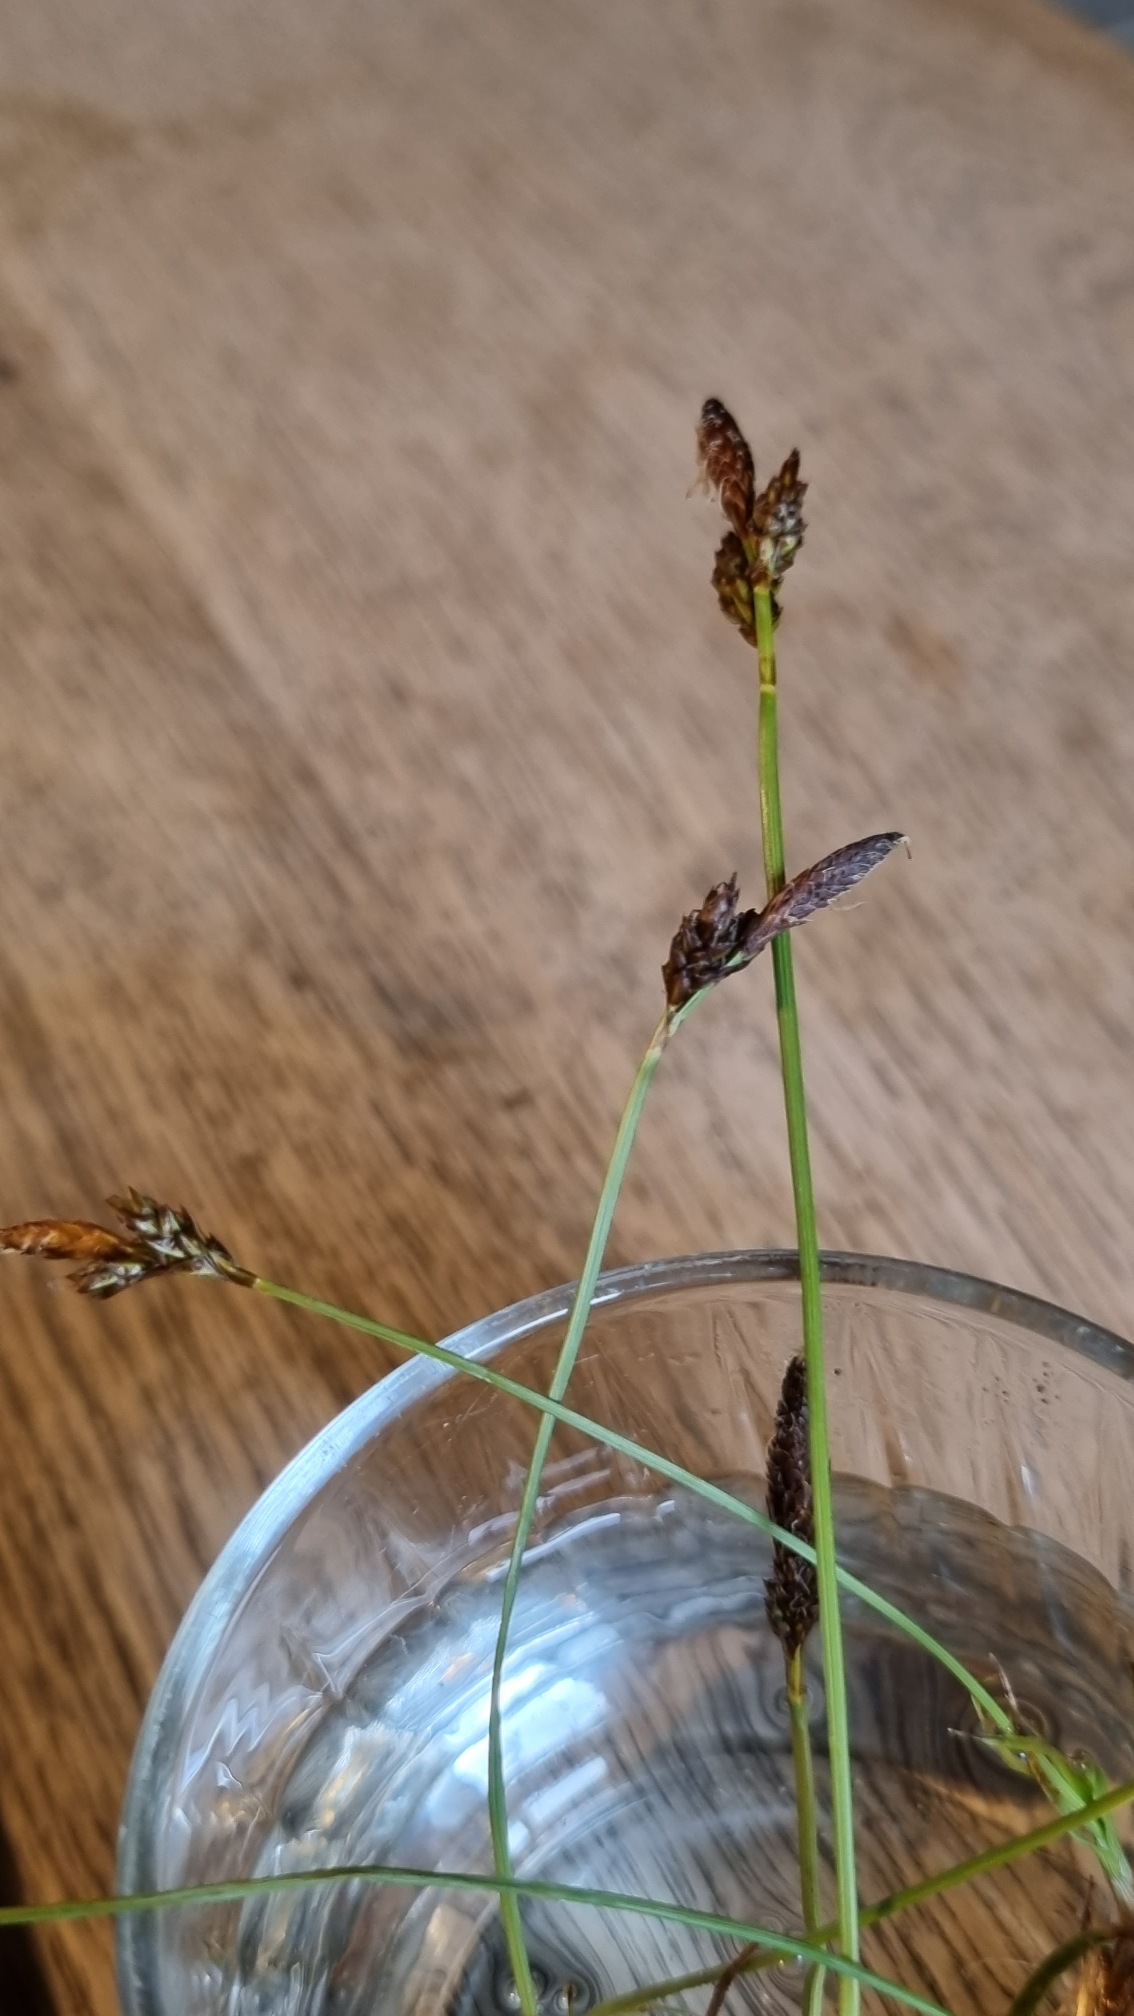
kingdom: Plantae
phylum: Tracheophyta
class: Liliopsida
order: Poales
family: Cyperaceae
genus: Carex
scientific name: Carex caryophyllea
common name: Vår-star
